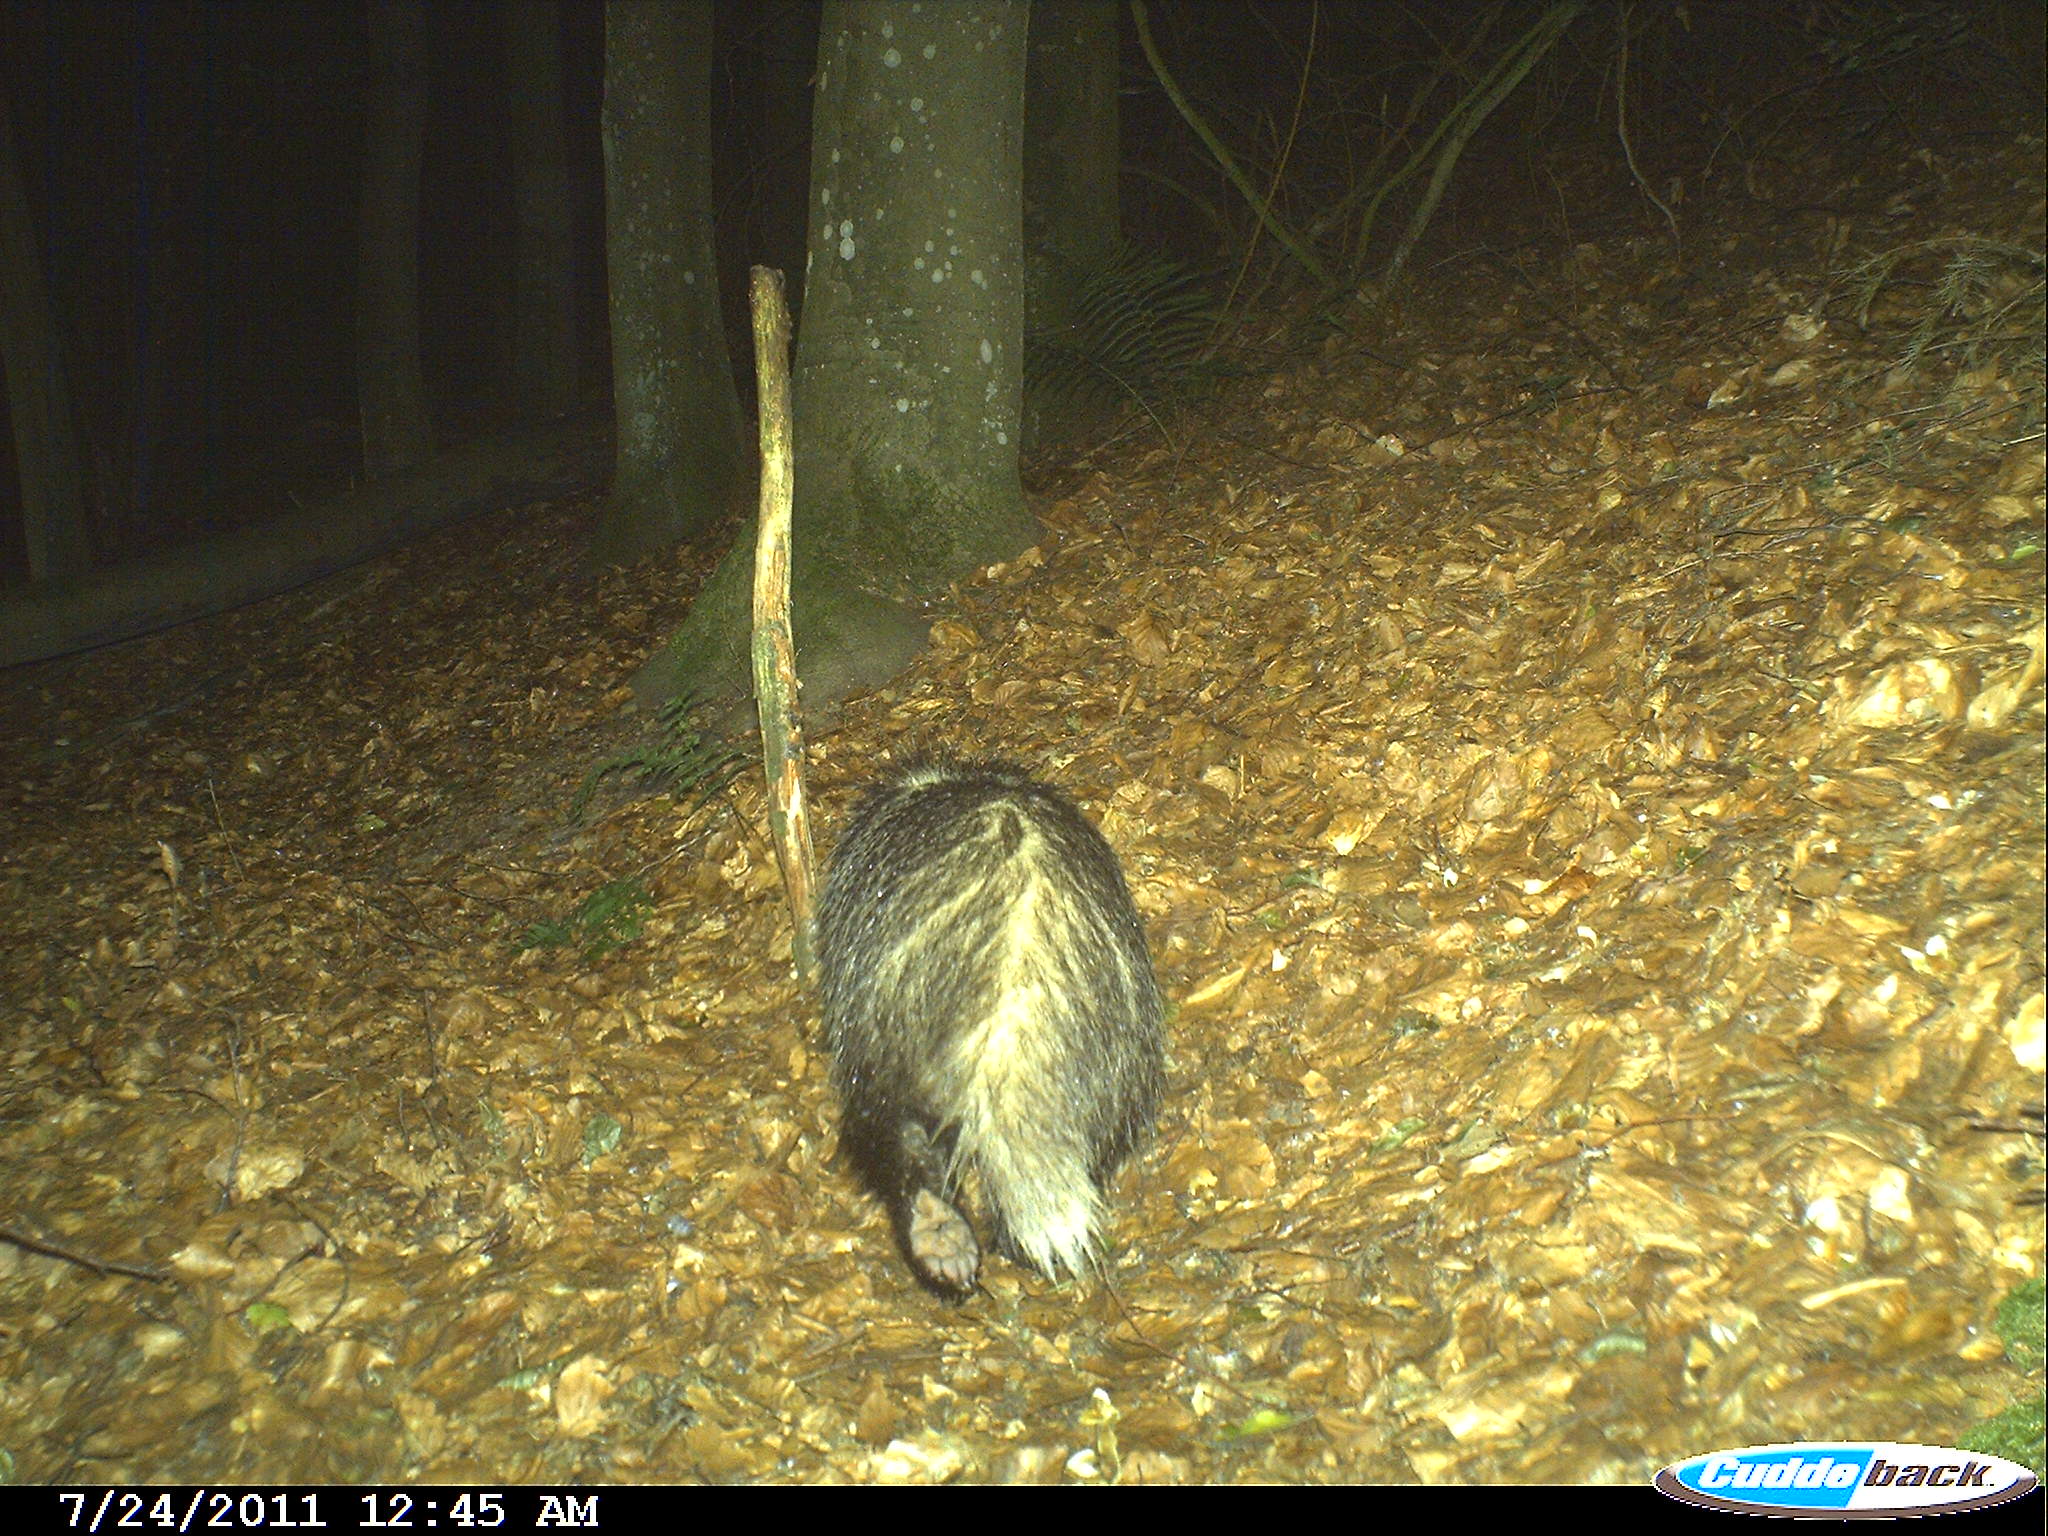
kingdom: Animalia
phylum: Chordata
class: Mammalia
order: Carnivora
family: Mustelidae
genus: Meles
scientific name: Meles meles
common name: Eurasian badger
